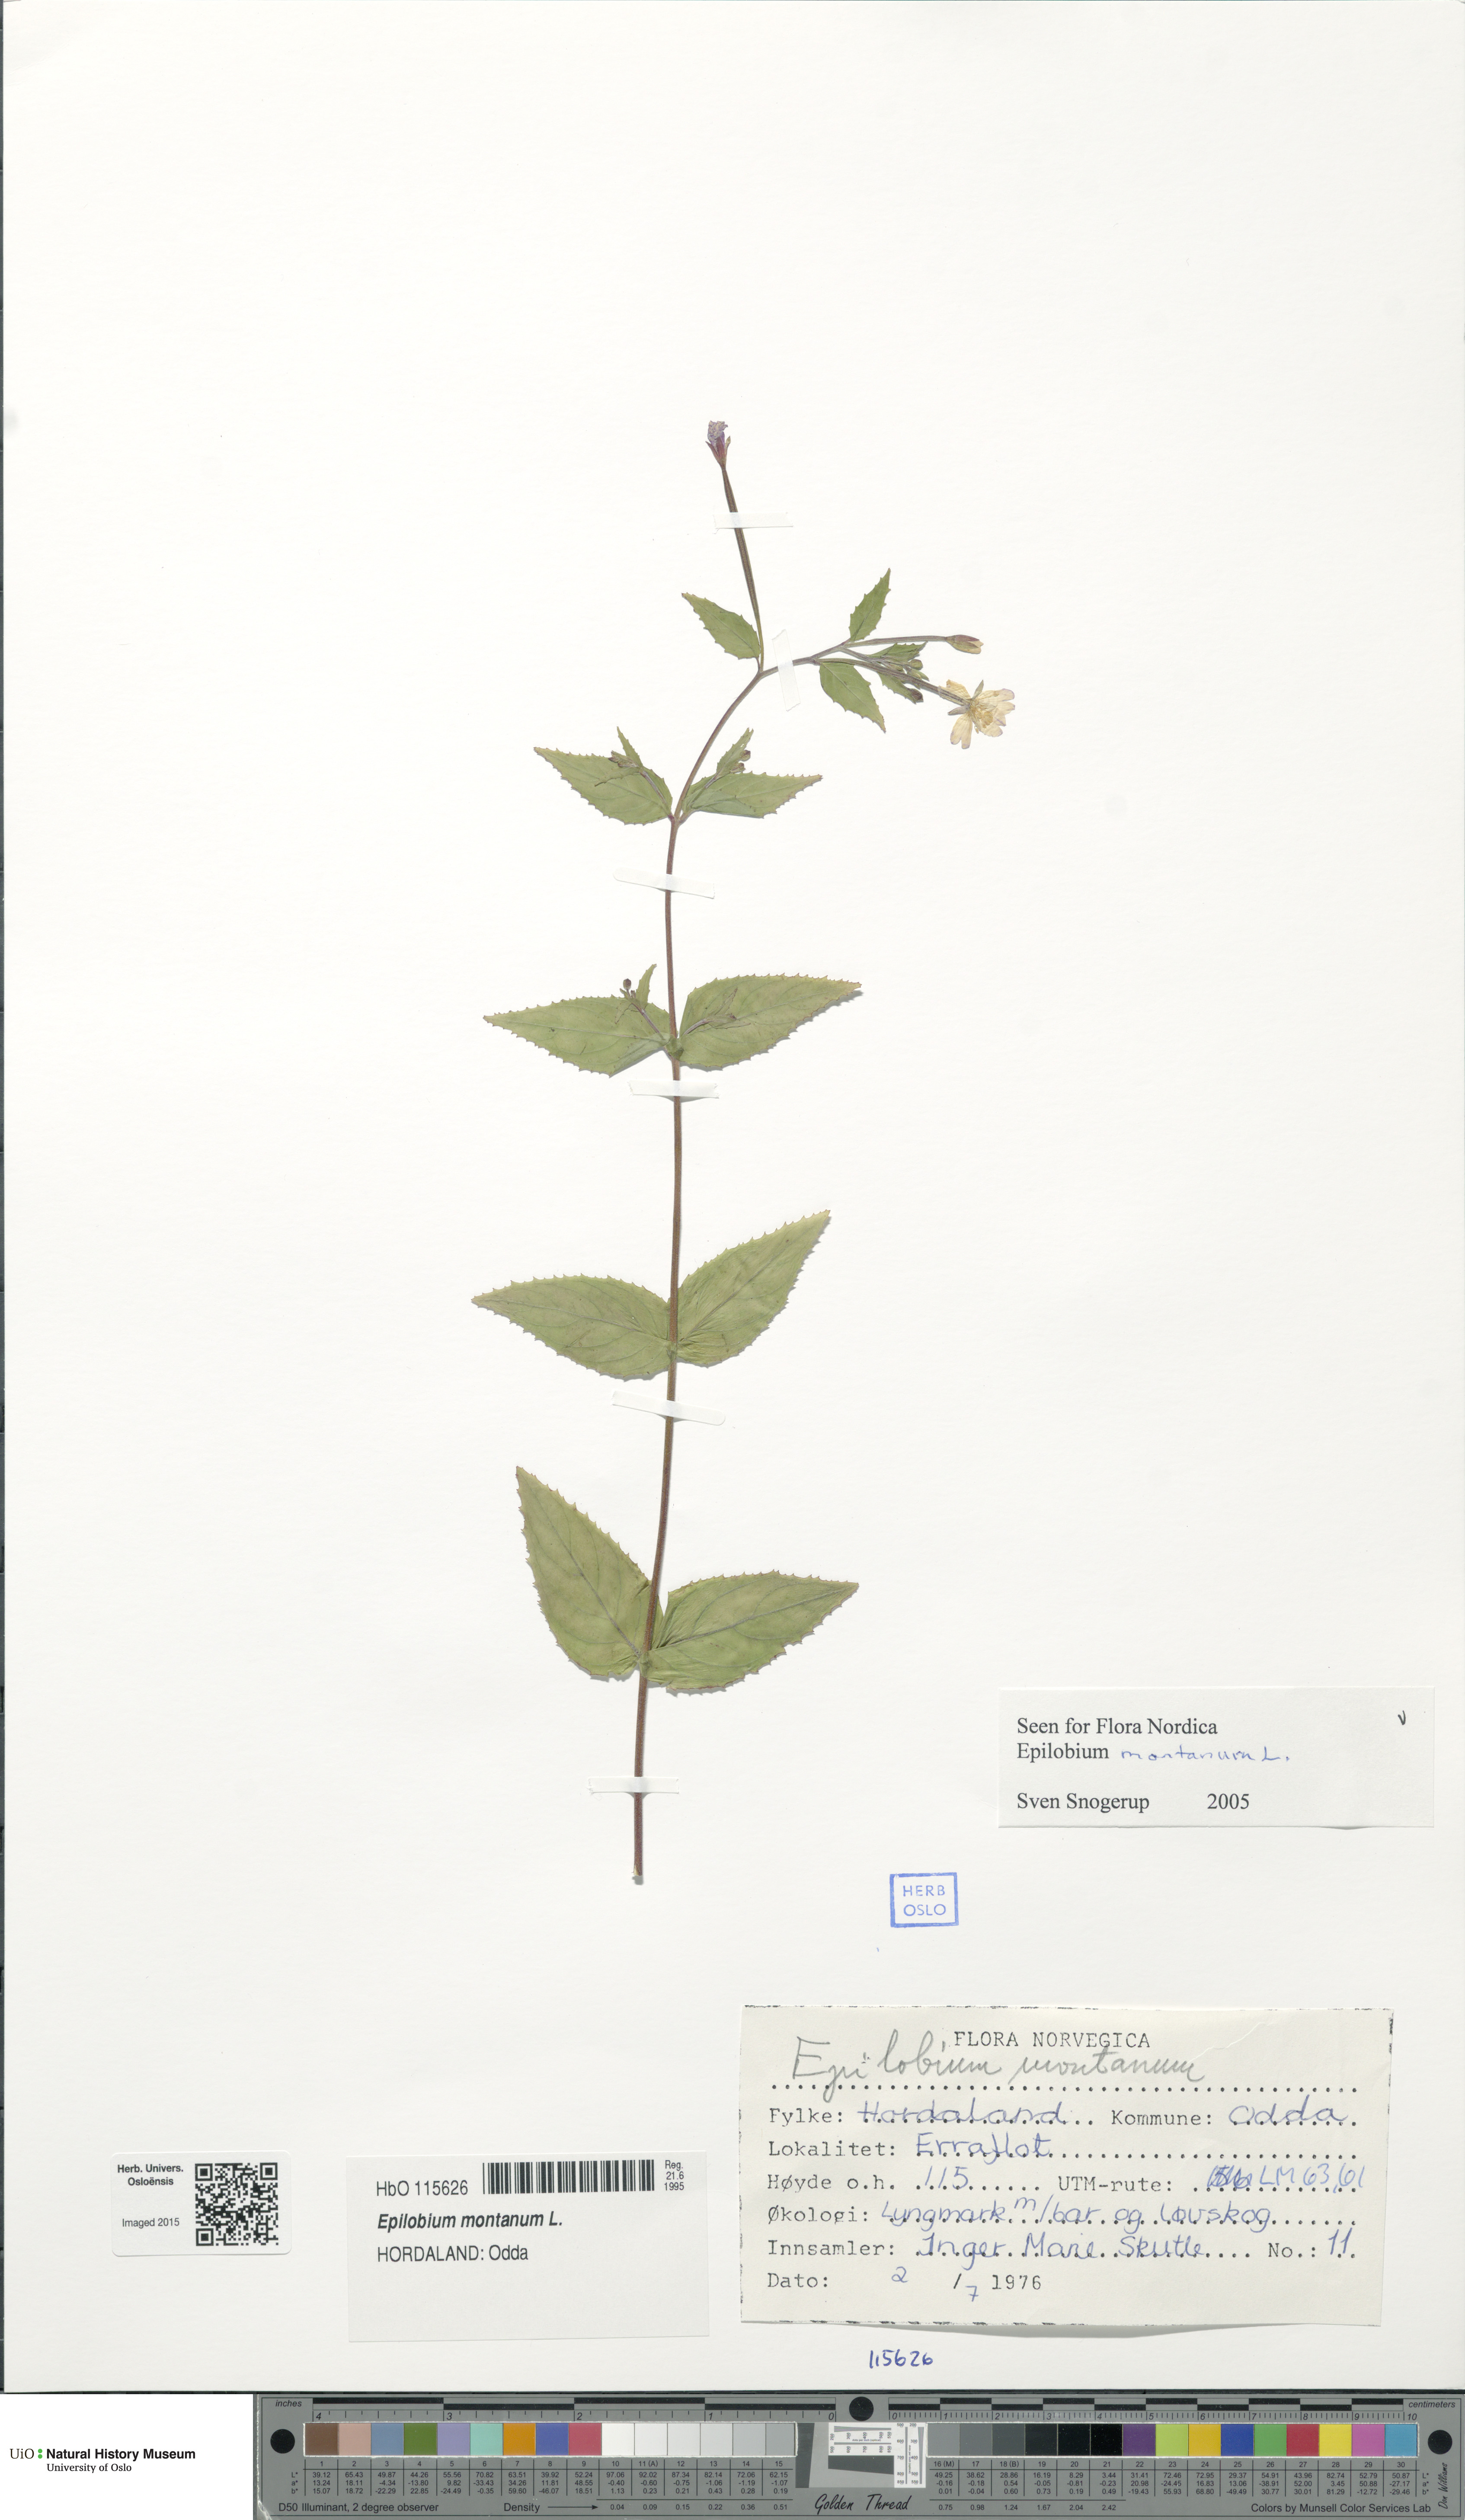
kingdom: Plantae
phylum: Tracheophyta
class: Magnoliopsida
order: Myrtales
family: Onagraceae
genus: Epilobium
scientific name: Epilobium montanum
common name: Broad-leaved willowherb
